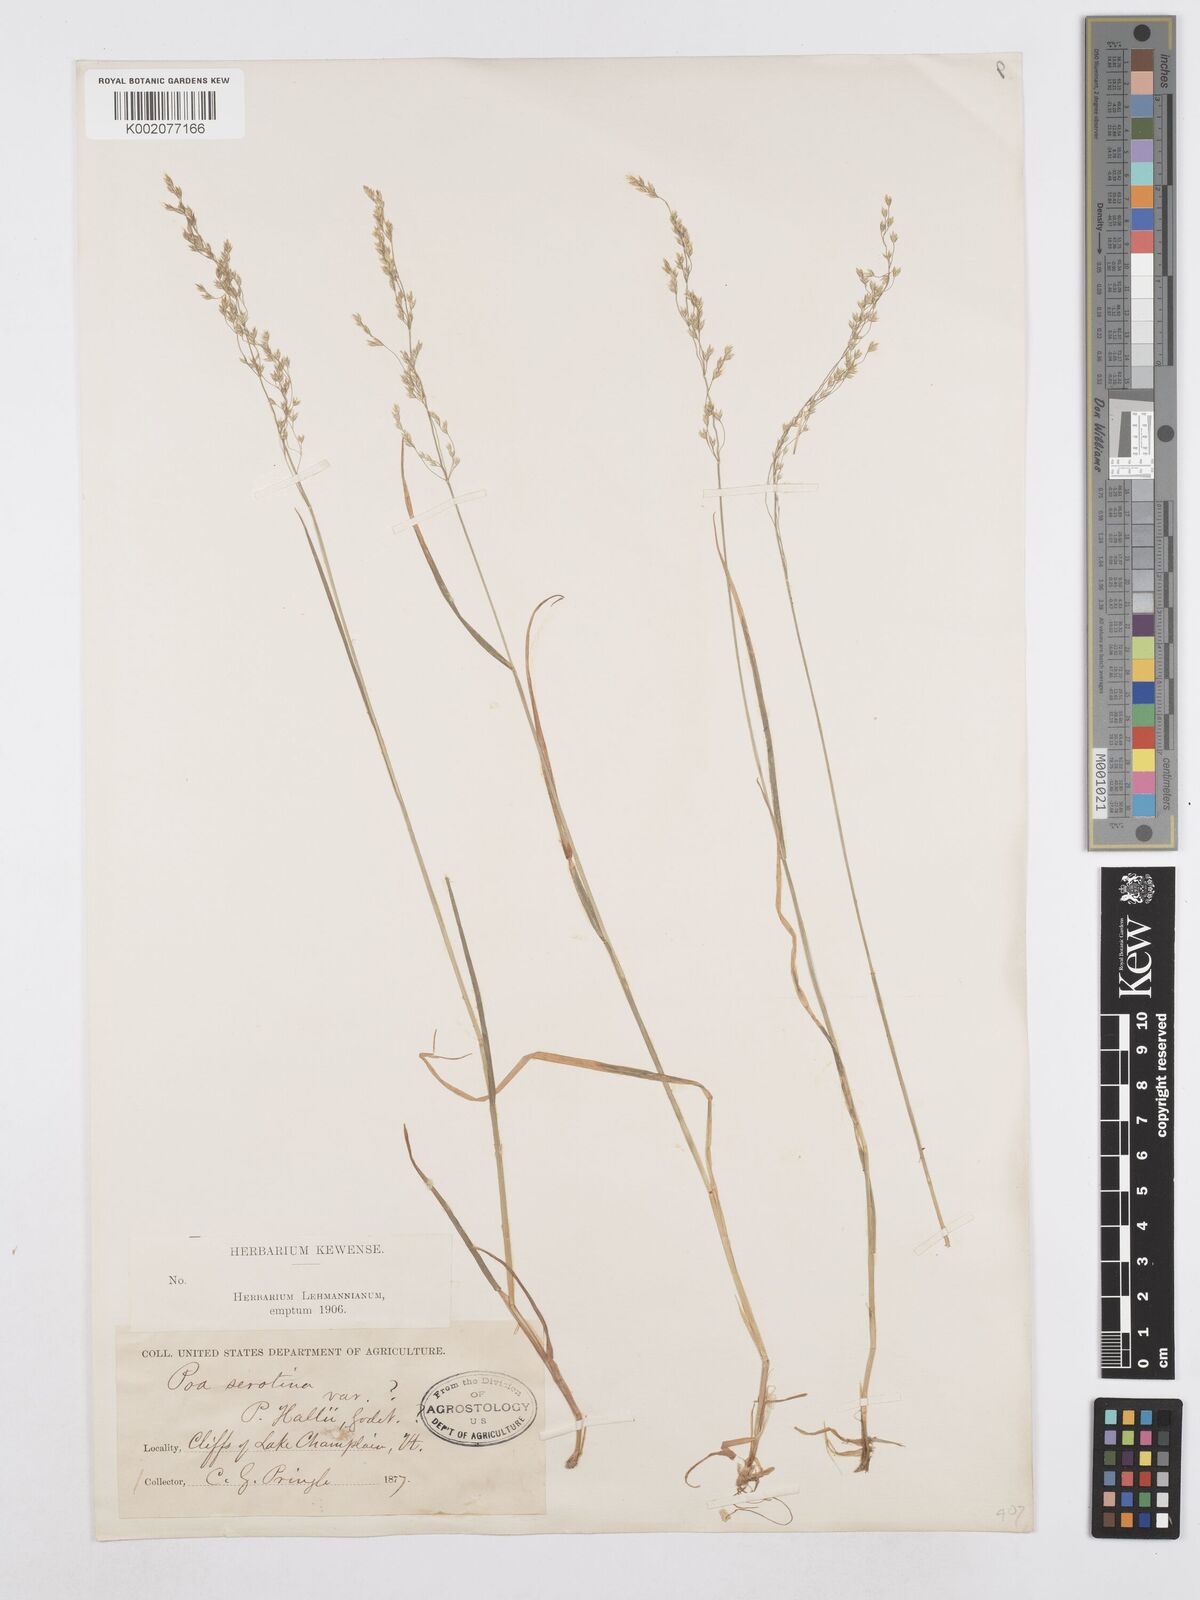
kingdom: Plantae
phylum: Tracheophyta
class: Liliopsida
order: Poales
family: Poaceae
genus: Poa
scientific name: Poa palustris
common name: Swamp meadow-grass
